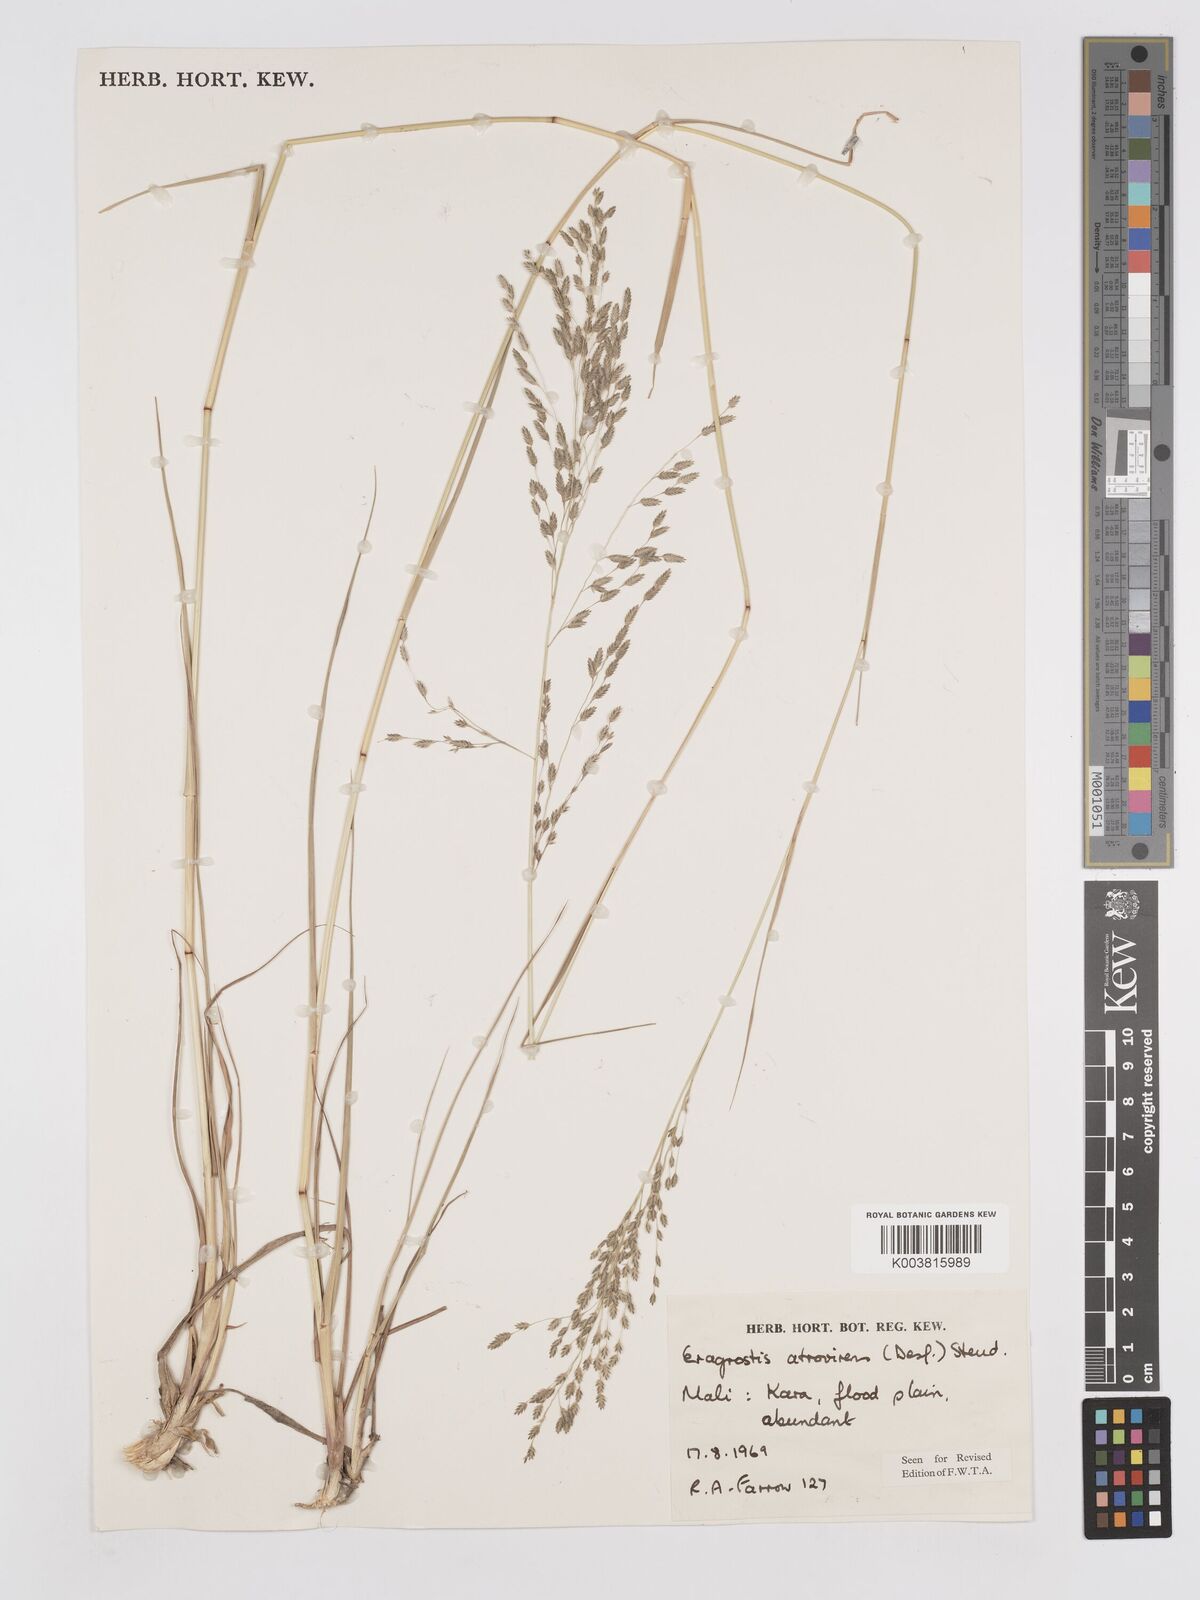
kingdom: Plantae
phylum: Tracheophyta
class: Liliopsida
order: Poales
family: Poaceae
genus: Eragrostis
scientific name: Eragrostis atrovirens
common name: Thalia lovegrass
